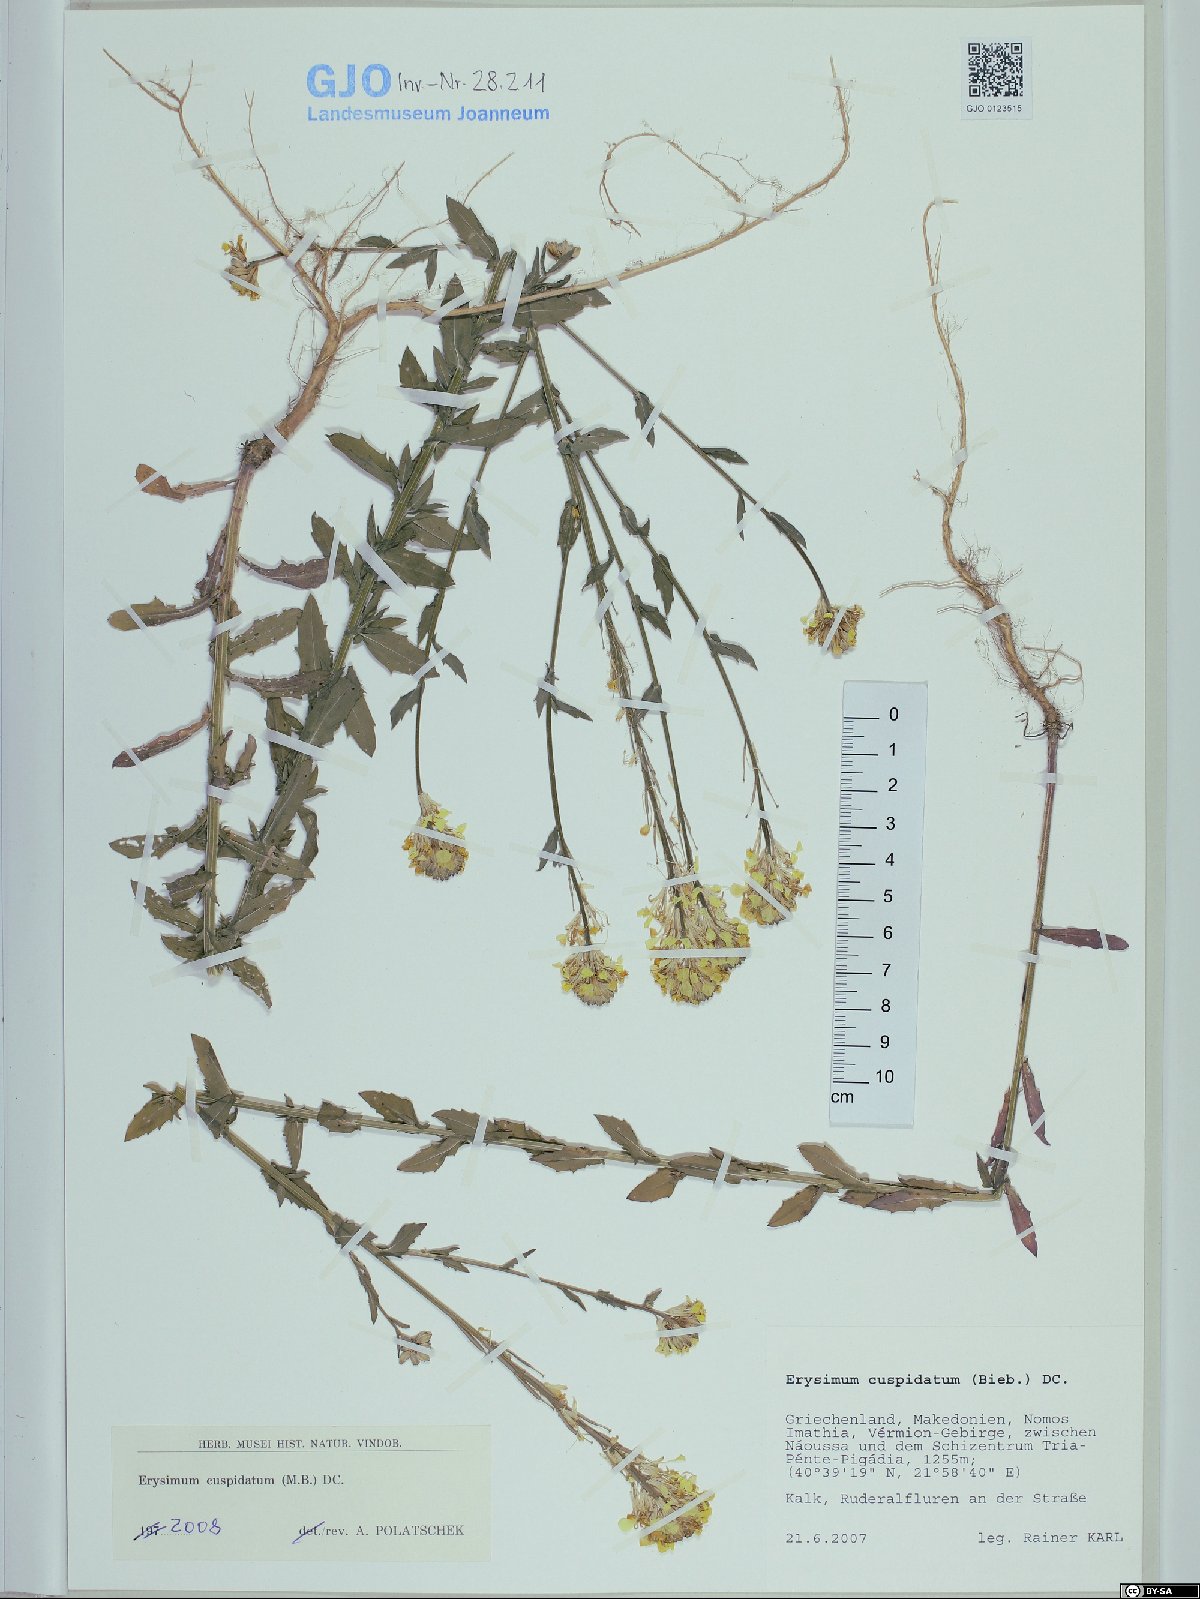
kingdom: Plantae
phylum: Tracheophyta
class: Magnoliopsida
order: Brassicales
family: Brassicaceae
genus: Erysimum
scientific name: Erysimum cuspidatum
